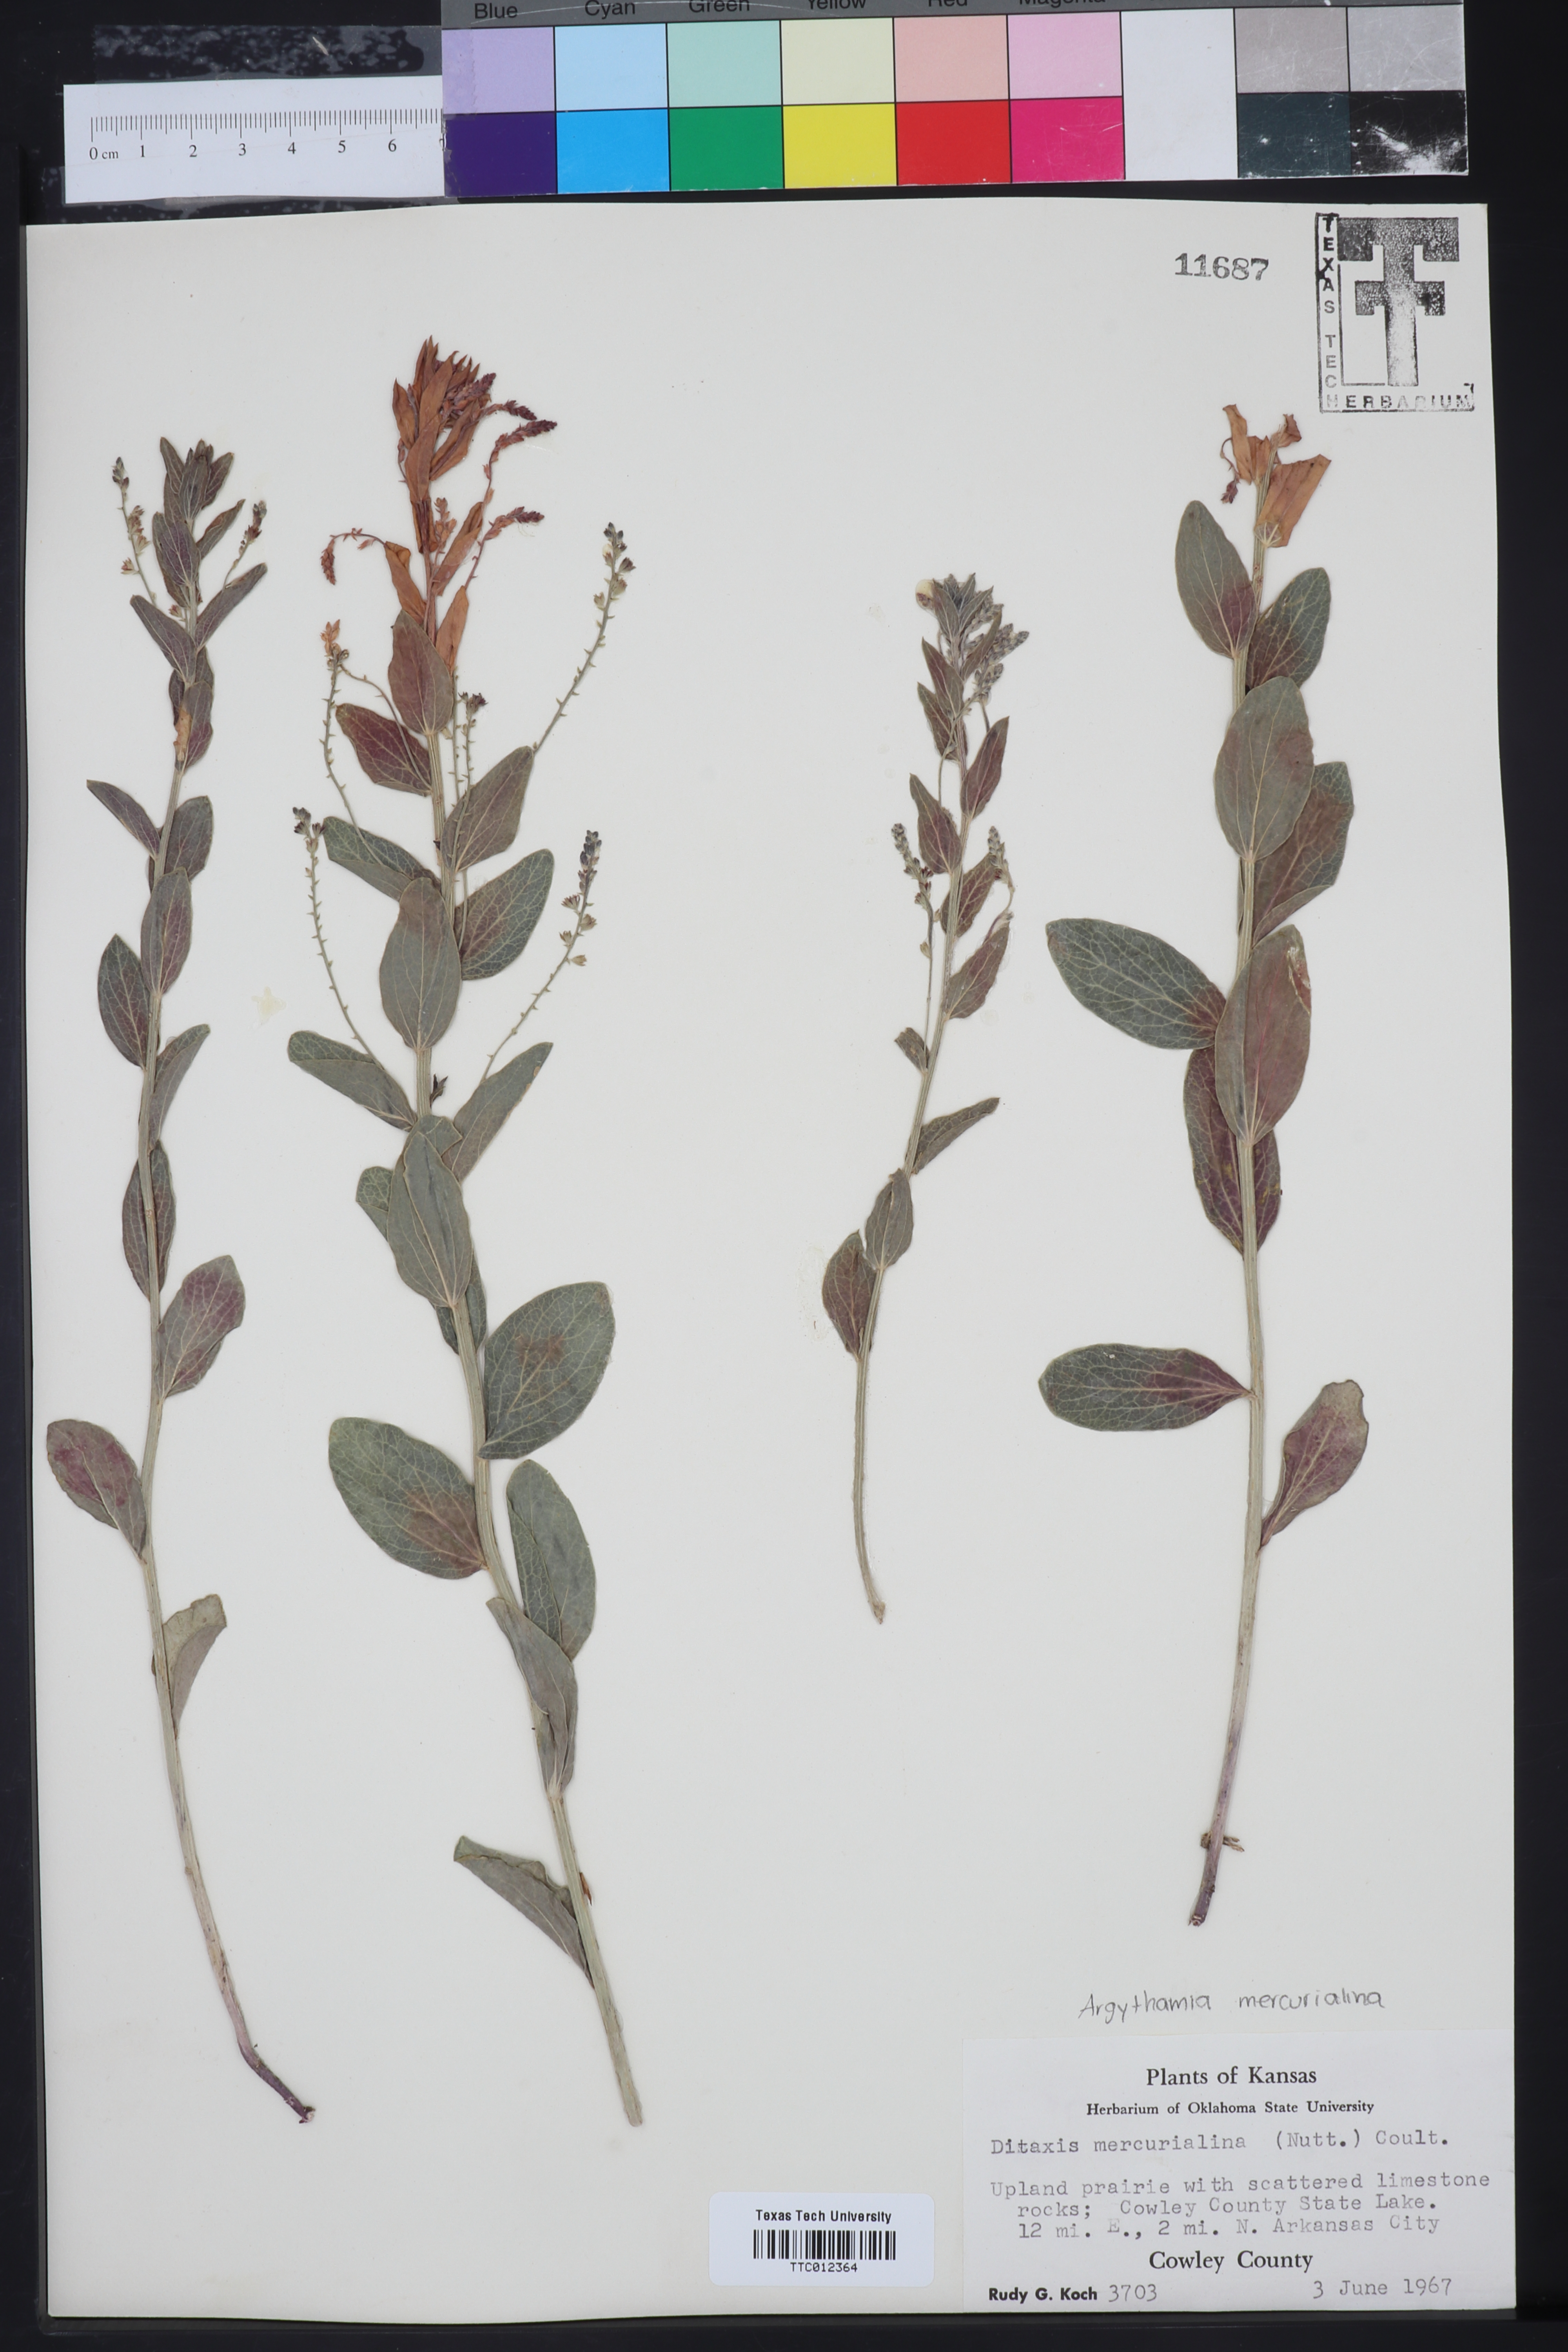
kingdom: Plantae
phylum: Tracheophyta
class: Magnoliopsida
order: Malpighiales
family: Euphorbiaceae
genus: Ditaxis
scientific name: Ditaxis mercurialina
